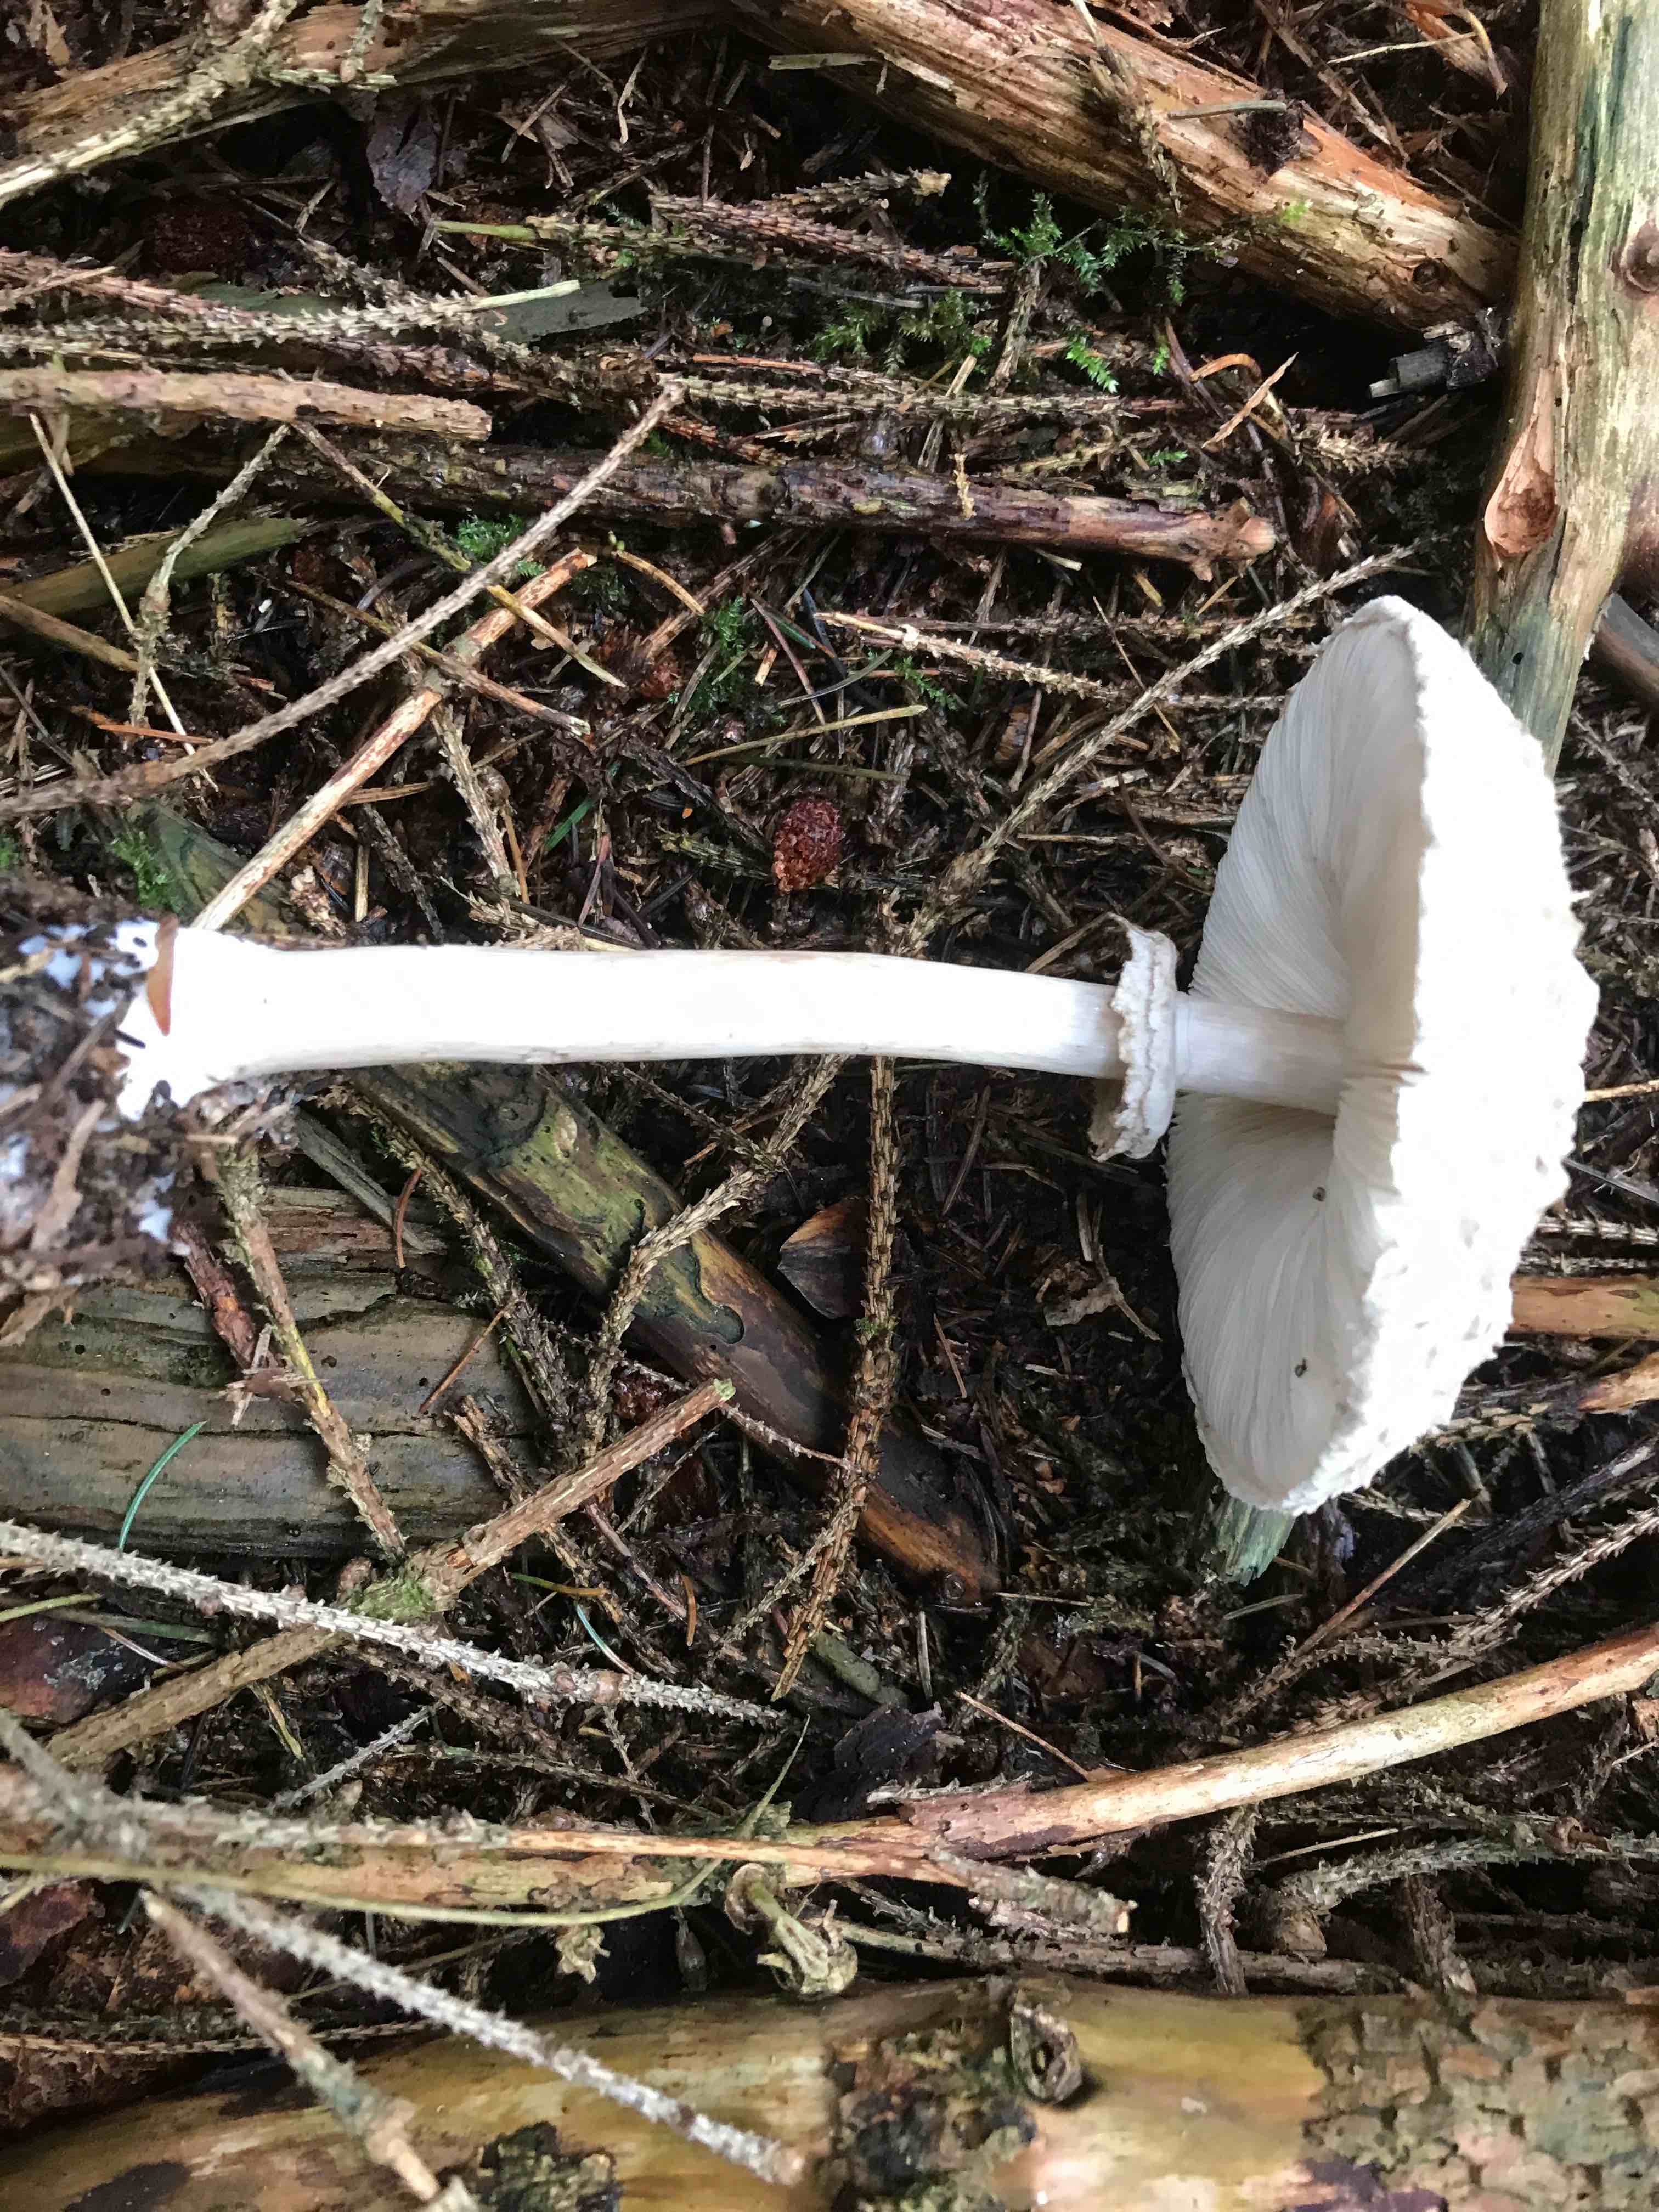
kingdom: Fungi
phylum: Basidiomycota
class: Agaricomycetes
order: Agaricales
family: Agaricaceae
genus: Chlorophyllum
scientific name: Chlorophyllum olivieri
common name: almindelig rabarberhat
